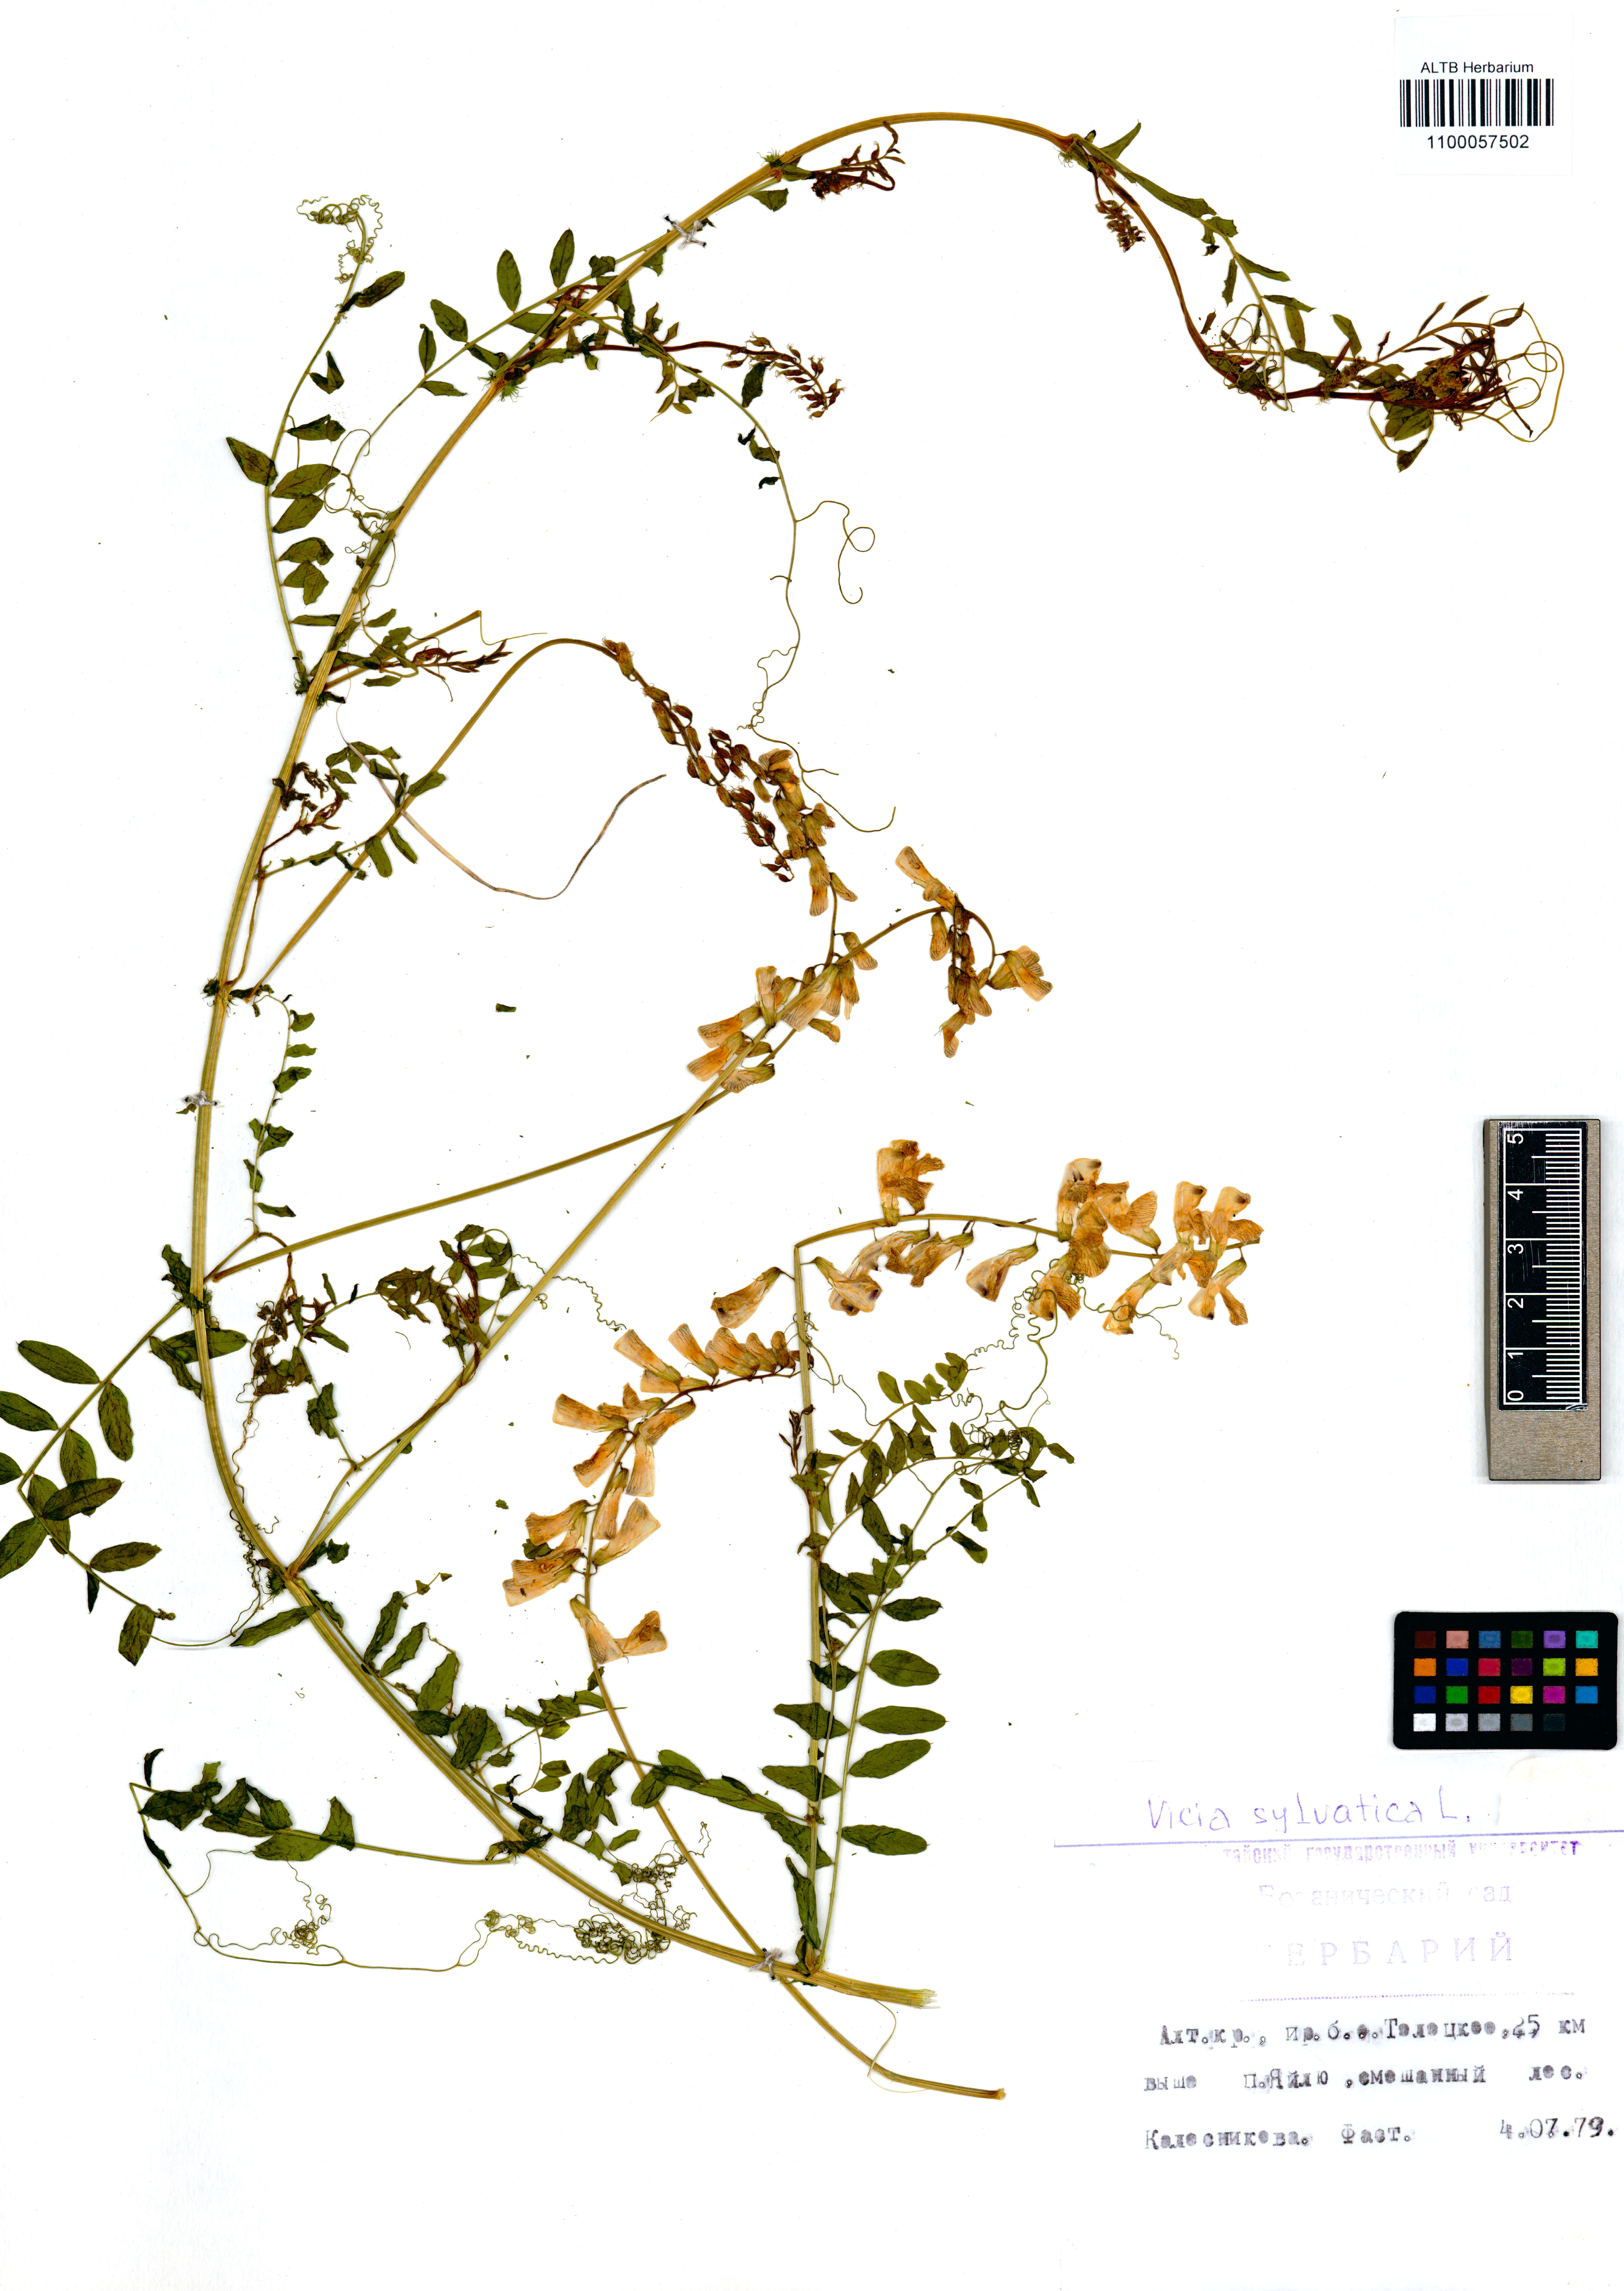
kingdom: Plantae
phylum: Tracheophyta
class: Magnoliopsida
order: Fabales
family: Fabaceae
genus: Vicia
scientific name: Vicia sylvatica
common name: Wood vetch
